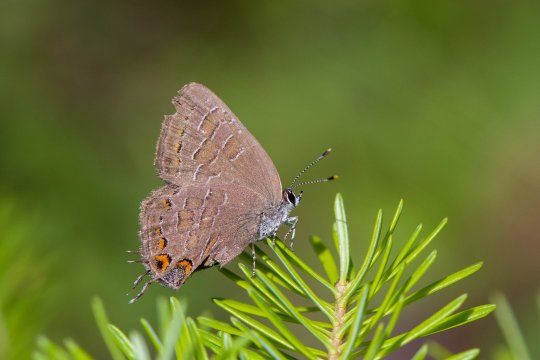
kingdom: Animalia
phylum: Arthropoda
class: Insecta
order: Lepidoptera
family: Lycaenidae
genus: Satyrium
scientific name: Satyrium liparops
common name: Striped Hairstreak
